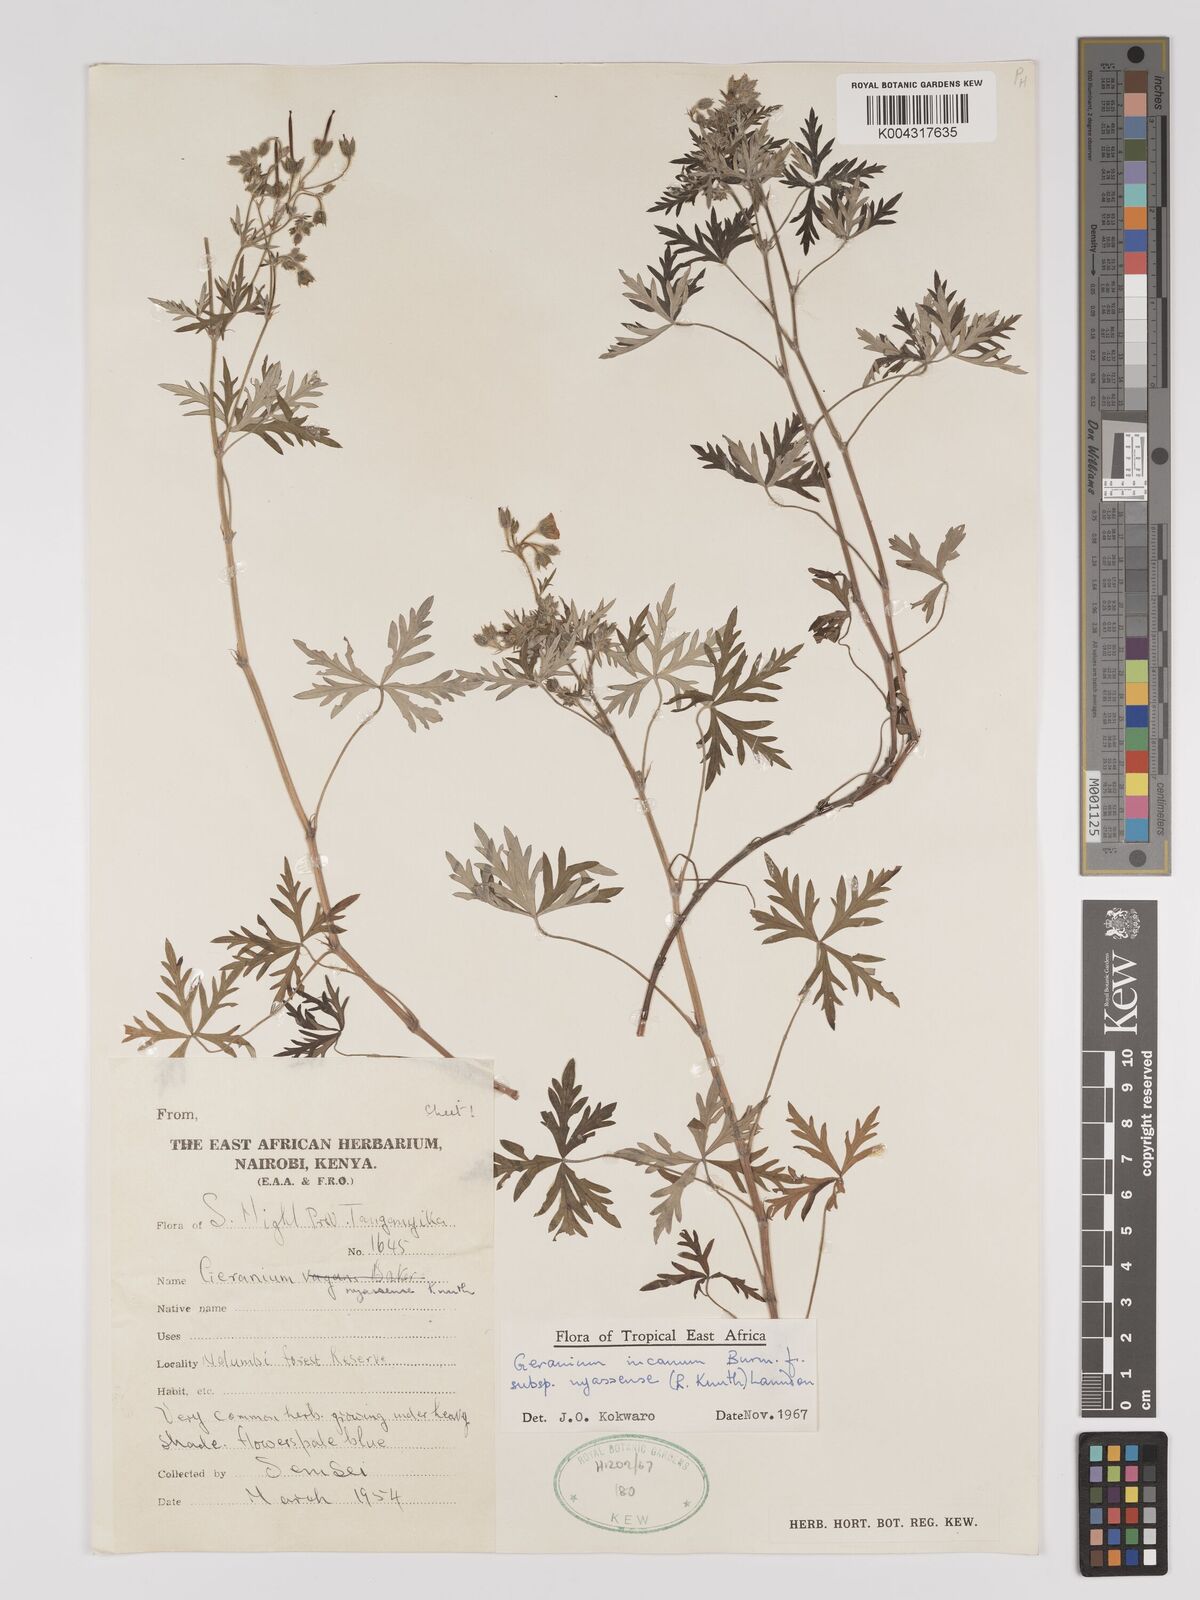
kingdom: Plantae
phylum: Tracheophyta
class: Magnoliopsida
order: Geraniales
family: Geraniaceae
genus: Geranium
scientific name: Geranium incanum
